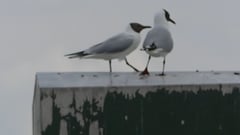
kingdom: Animalia
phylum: Chordata
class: Aves
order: Charadriiformes
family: Laridae
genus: Chroicocephalus
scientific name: Chroicocephalus ridibundus
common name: Black-headed gull
